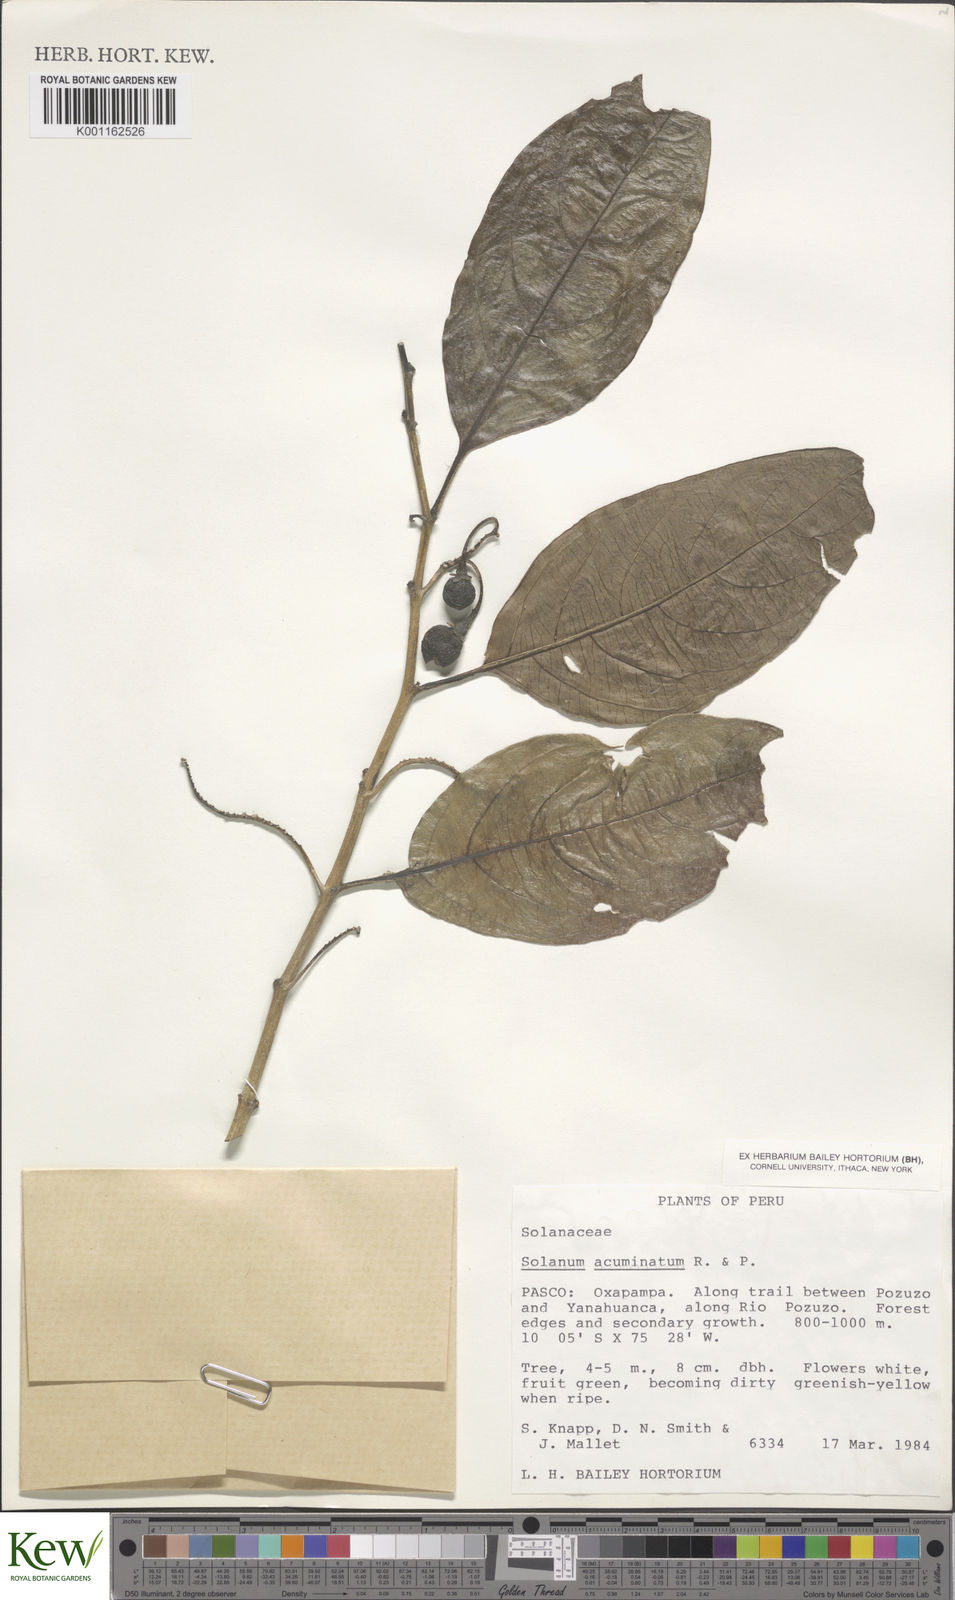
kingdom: Plantae
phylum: Tracheophyta
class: Magnoliopsida
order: Solanales
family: Solanaceae
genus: Solanum
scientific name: Solanum acuminatum
